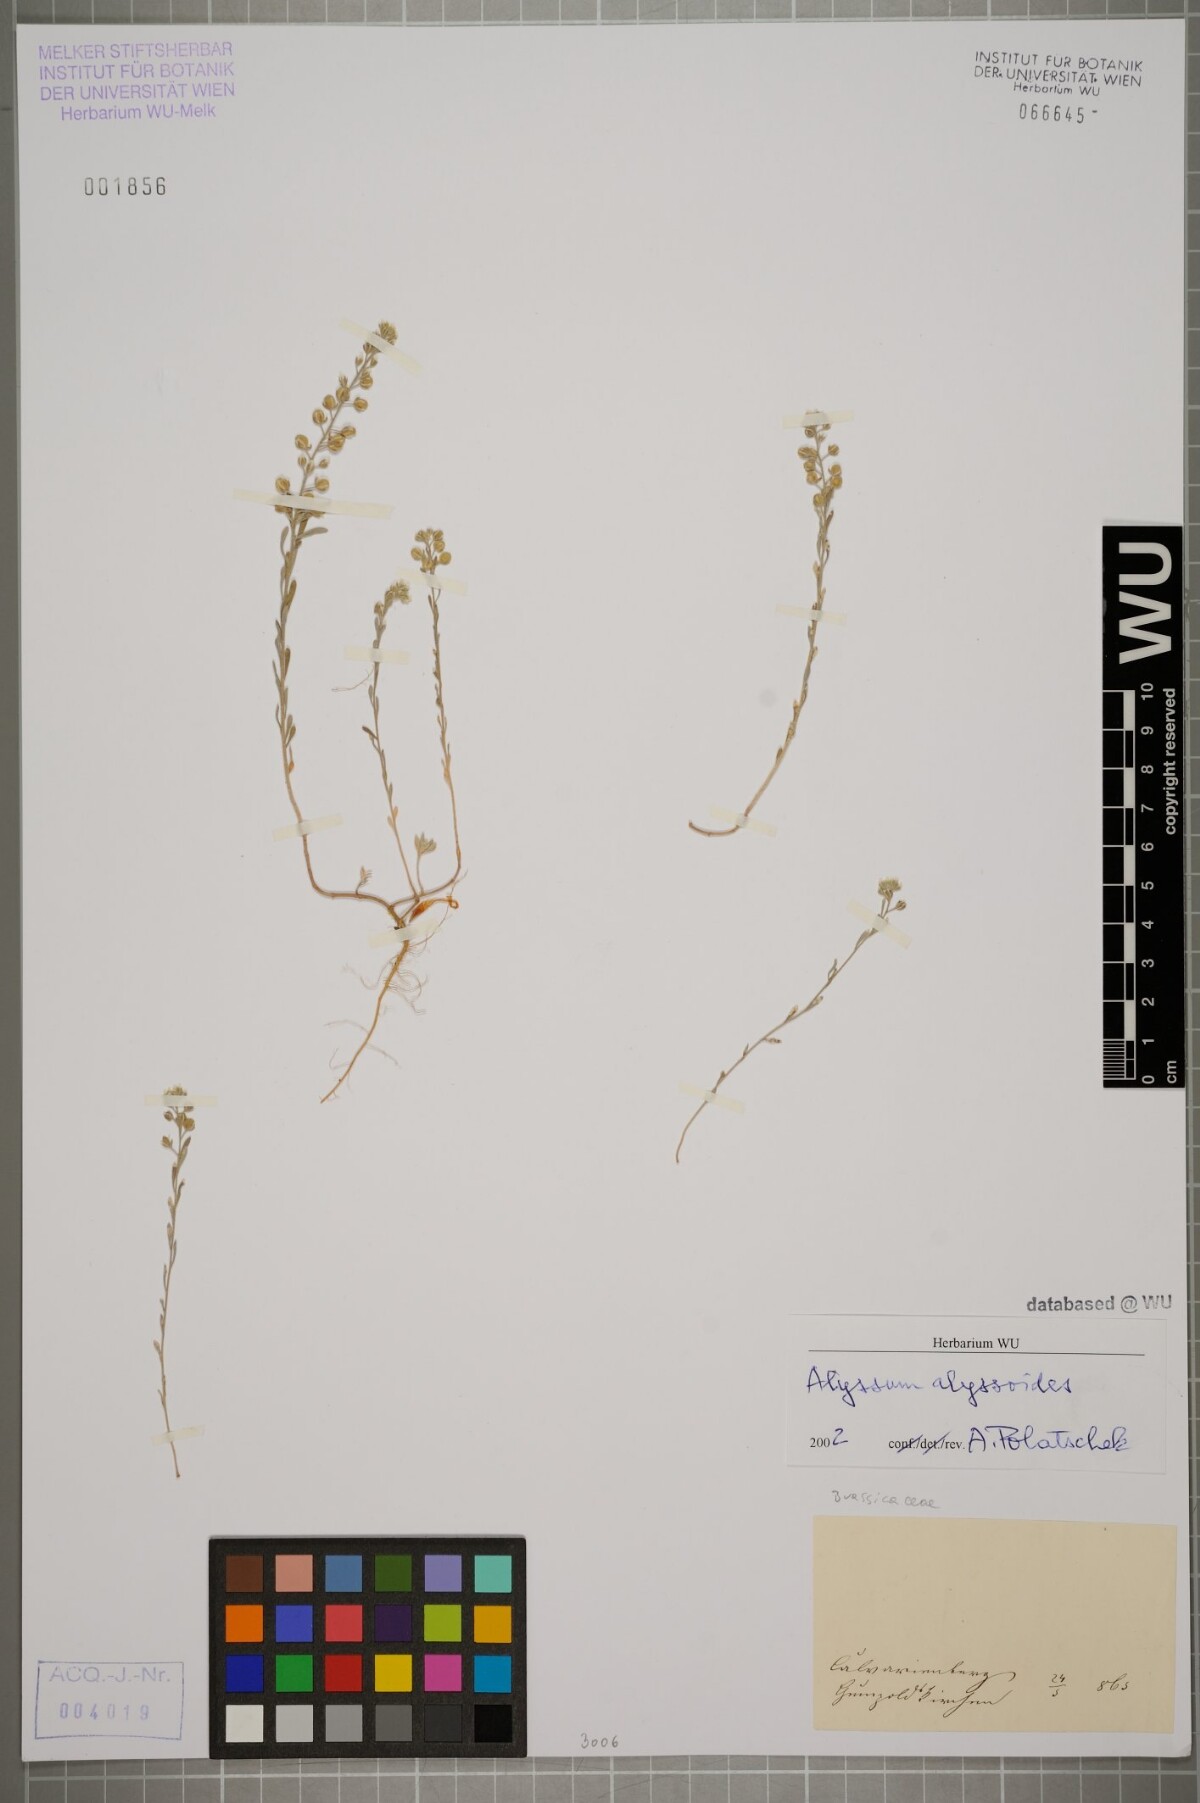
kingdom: Plantae
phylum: Tracheophyta
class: Magnoliopsida
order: Brassicales
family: Brassicaceae
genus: Alyssum
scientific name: Alyssum alyssoides
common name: Small alison
